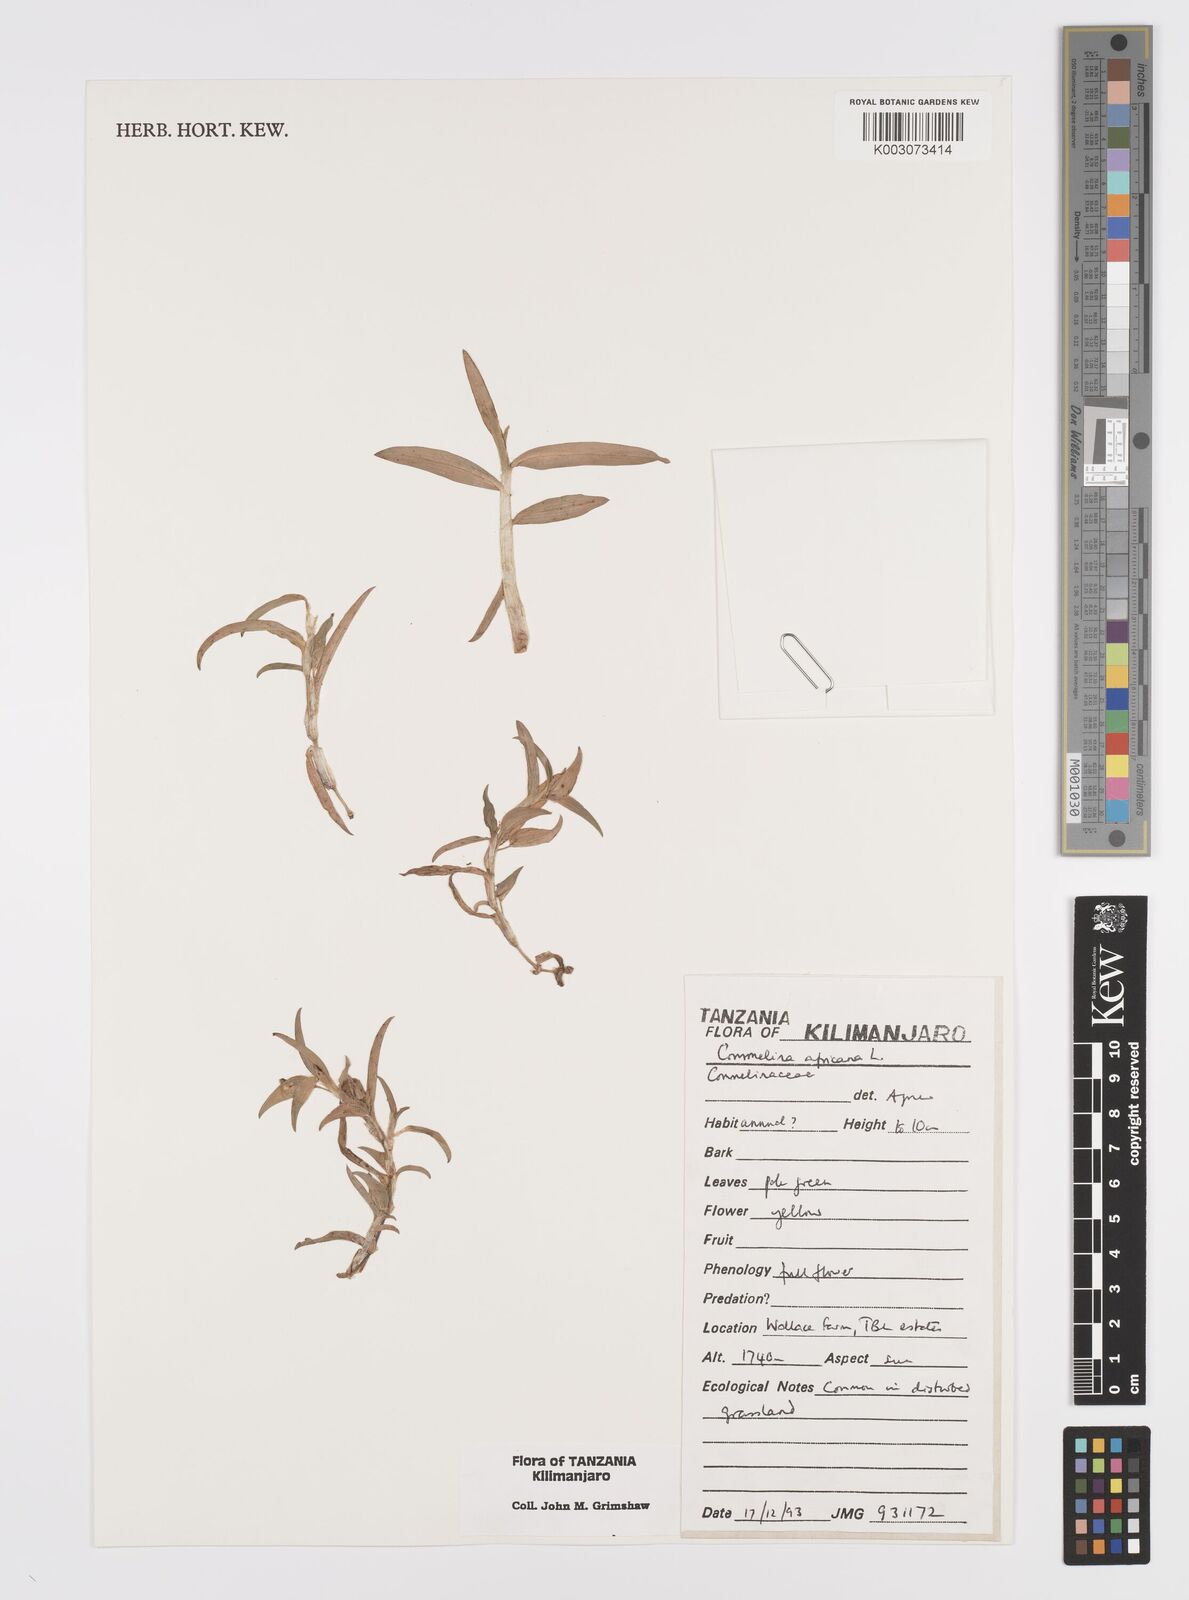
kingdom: Plantae
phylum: Tracheophyta
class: Liliopsida
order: Commelinales
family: Commelinaceae
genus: Commelina
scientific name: Commelina africana
